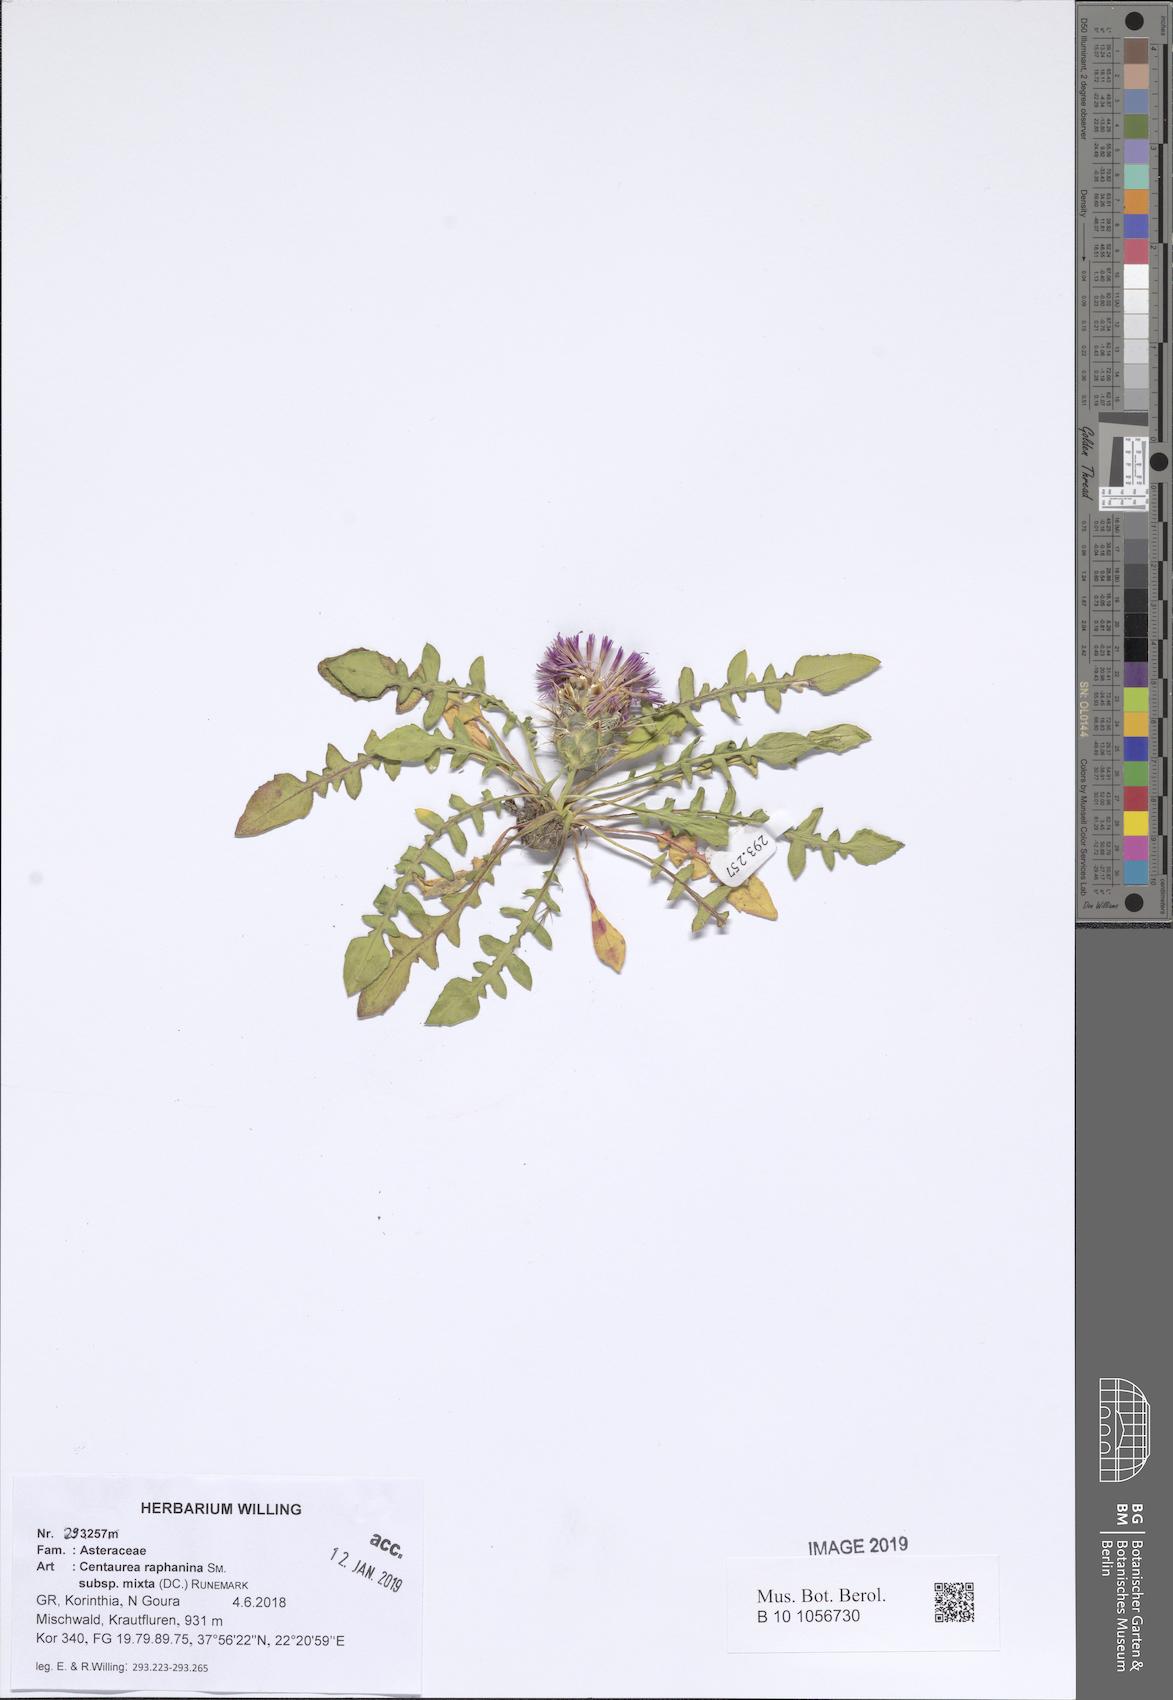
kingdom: Plantae
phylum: Tracheophyta
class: Magnoliopsida
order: Asterales
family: Asteraceae
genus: Centaurea
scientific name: Centaurea raphanina
